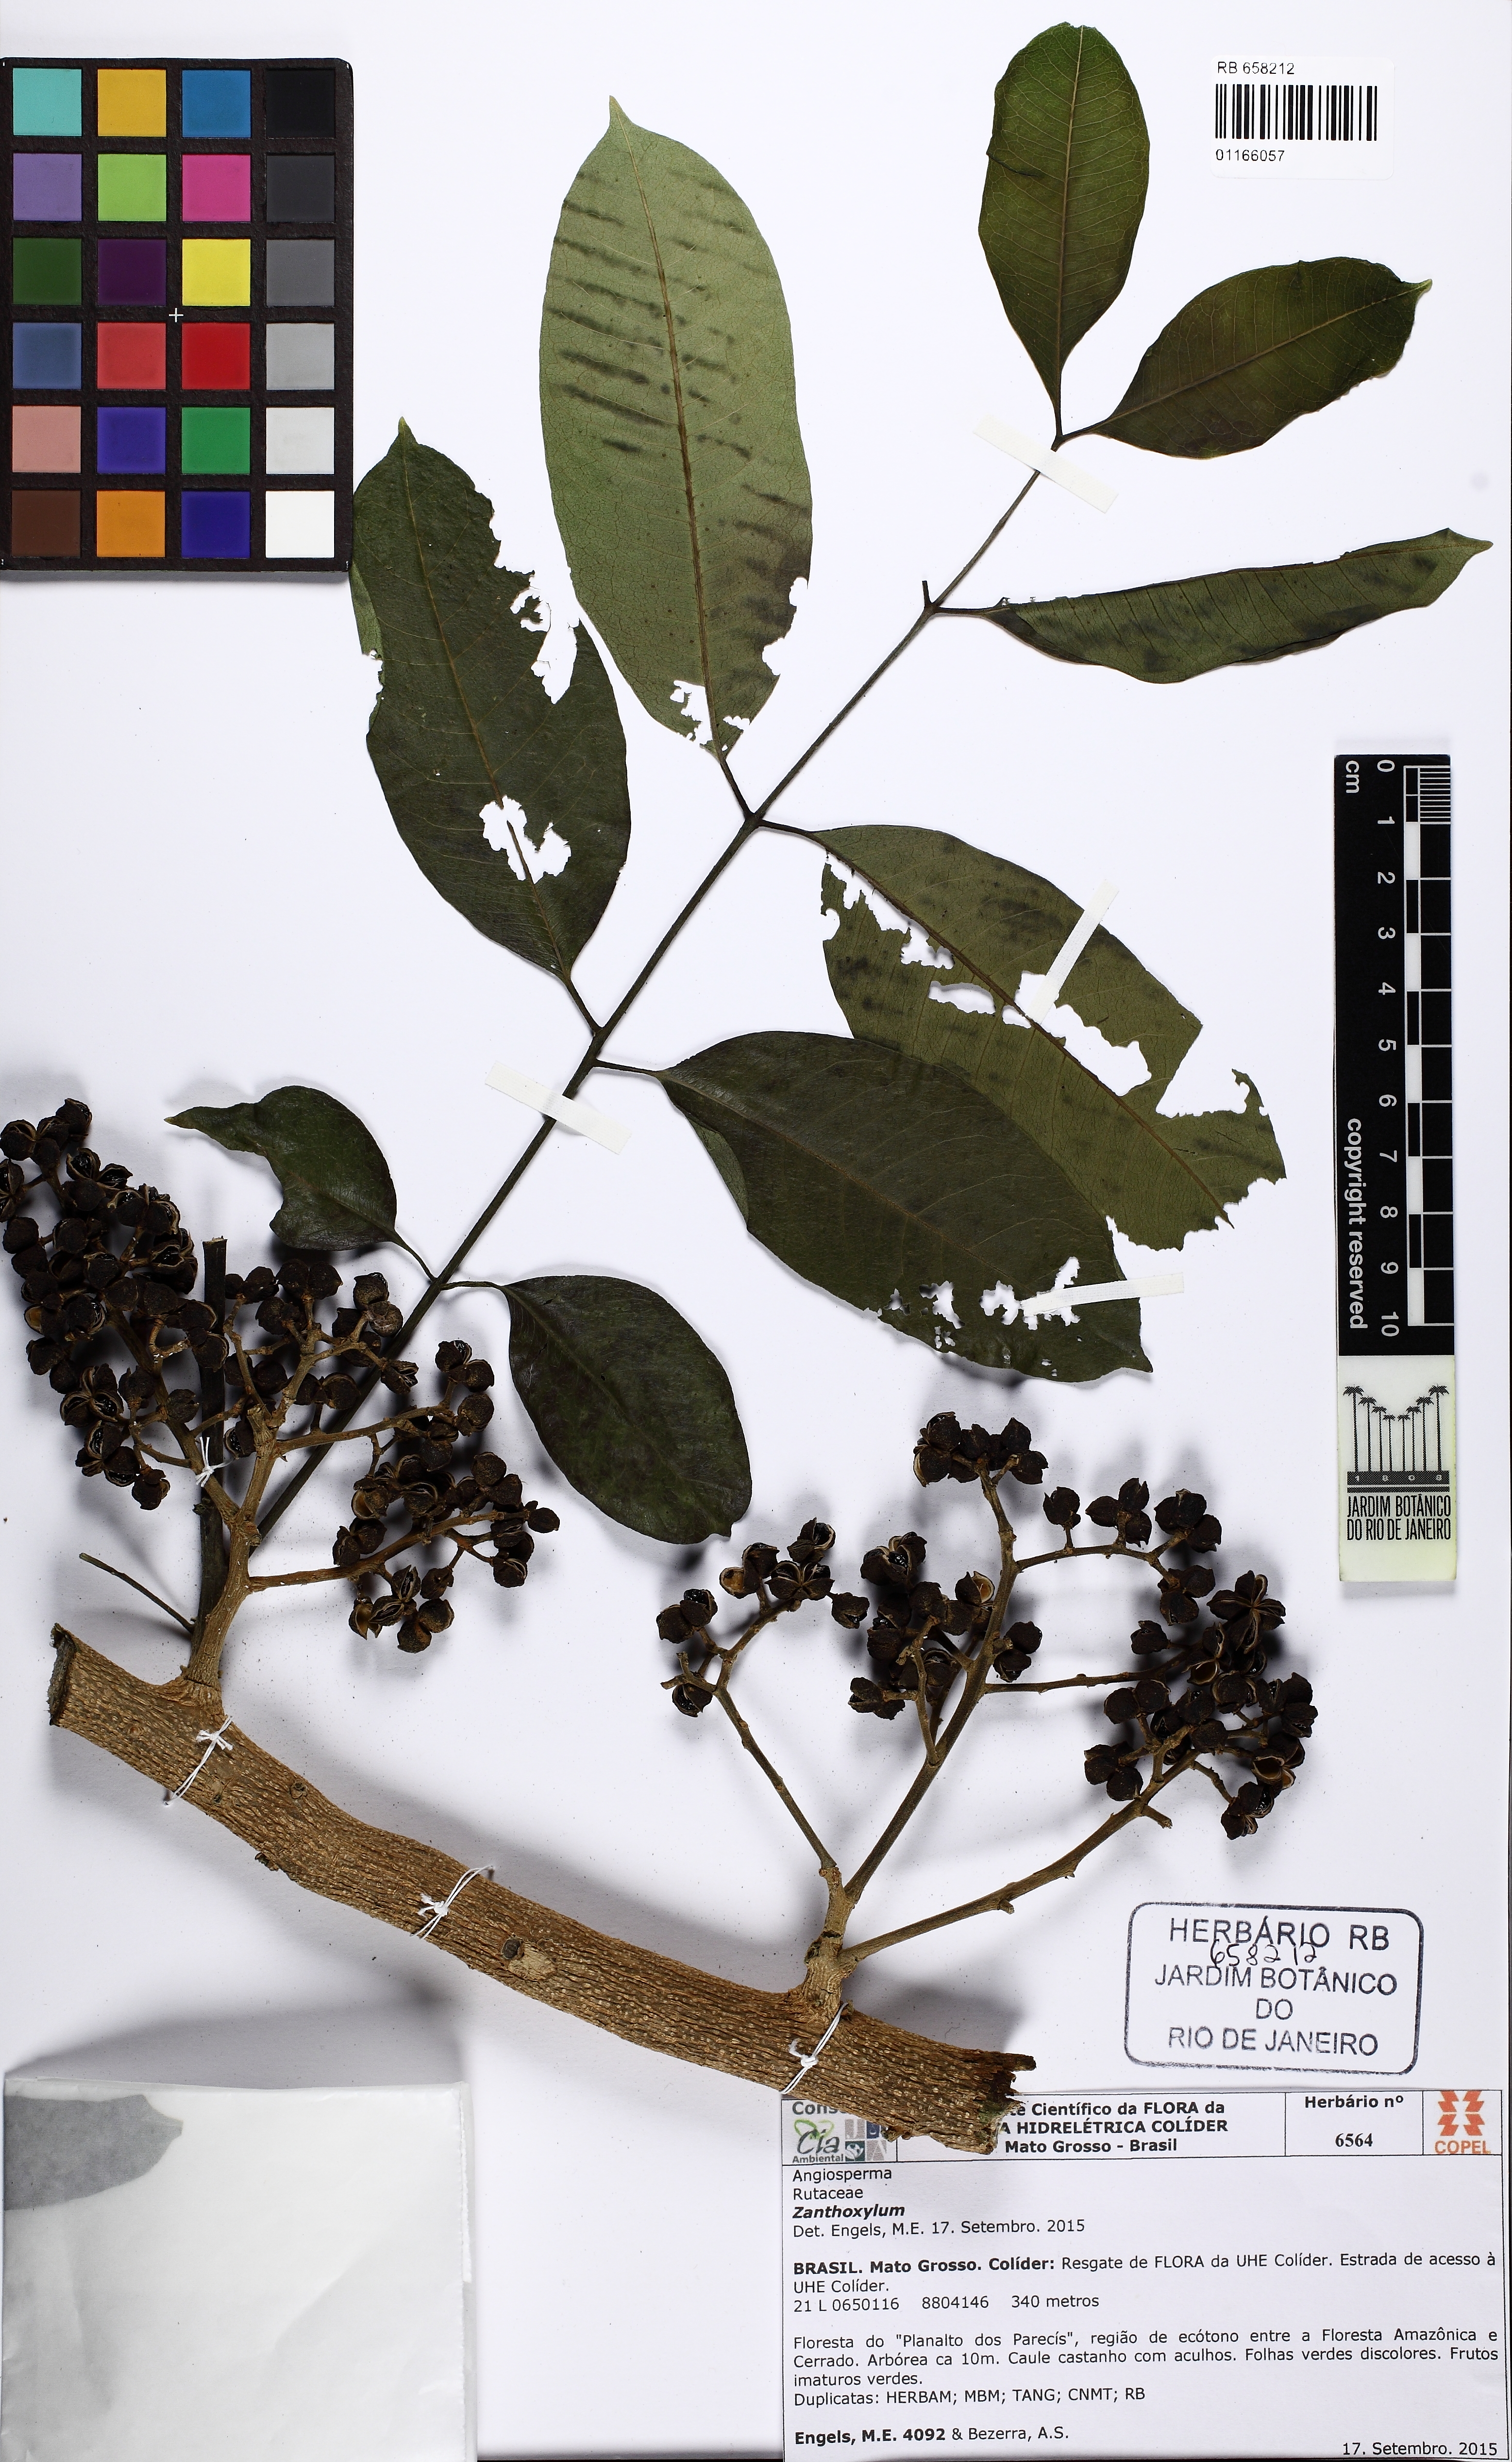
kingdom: Plantae
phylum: Tracheophyta
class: Magnoliopsida
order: Sapindales
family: Rutaceae
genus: Zanthoxylum
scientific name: Zanthoxylum riedelianum
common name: White copal
